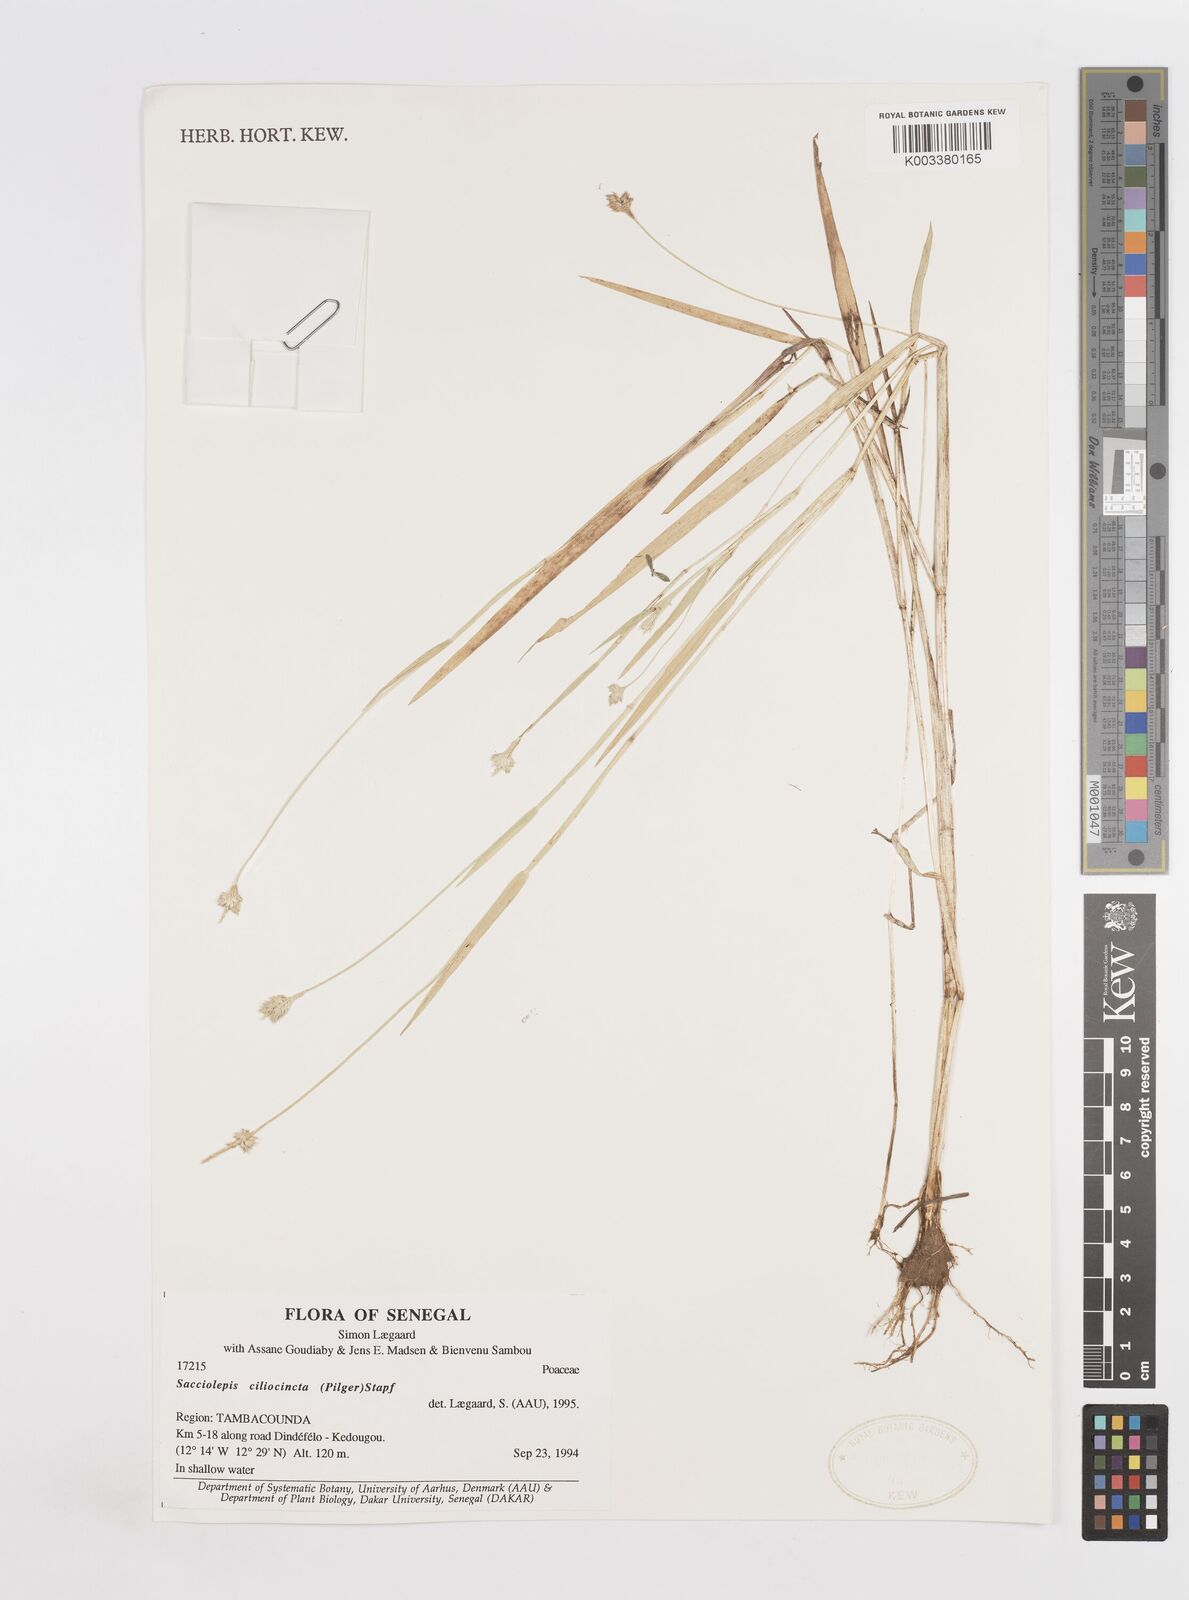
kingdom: Plantae
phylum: Tracheophyta
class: Liliopsida
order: Poales
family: Poaceae
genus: Sacciolepis
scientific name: Sacciolepis ciliocincta
